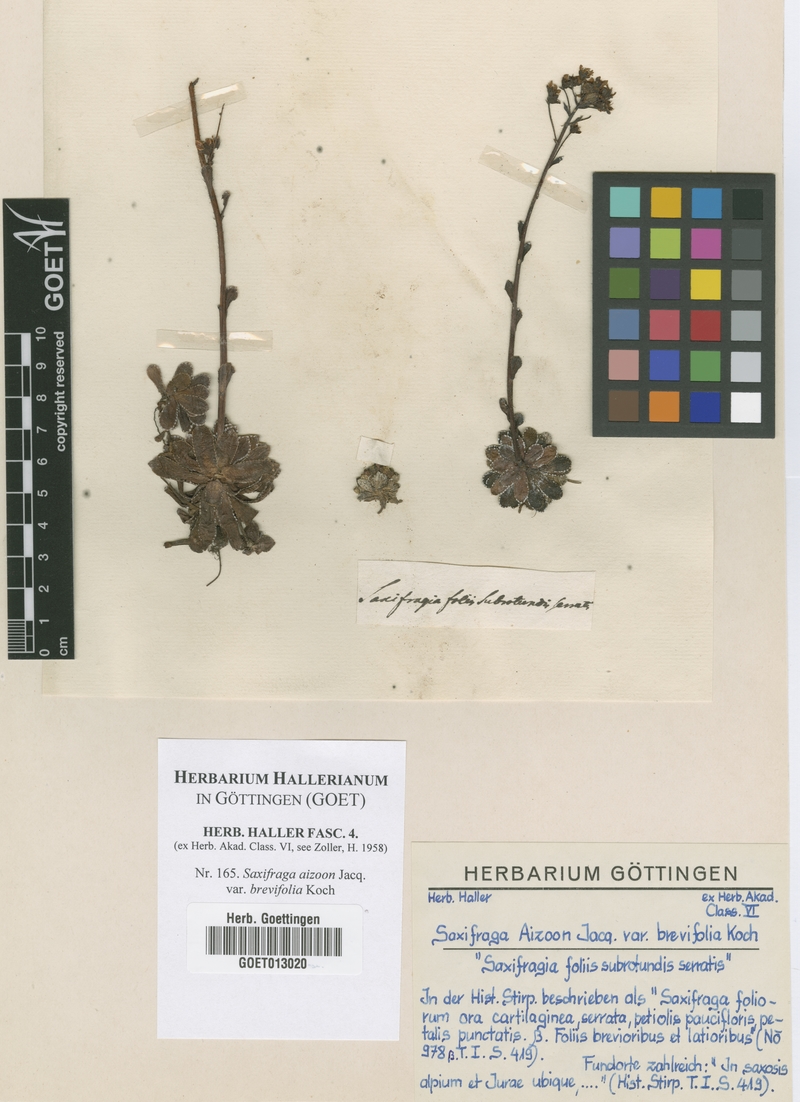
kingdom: Plantae
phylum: Tracheophyta
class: Magnoliopsida
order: Saxifragales
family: Saxifragaceae
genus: Saxifraga
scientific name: Saxifraga paniculata
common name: Livelong saxifrage
